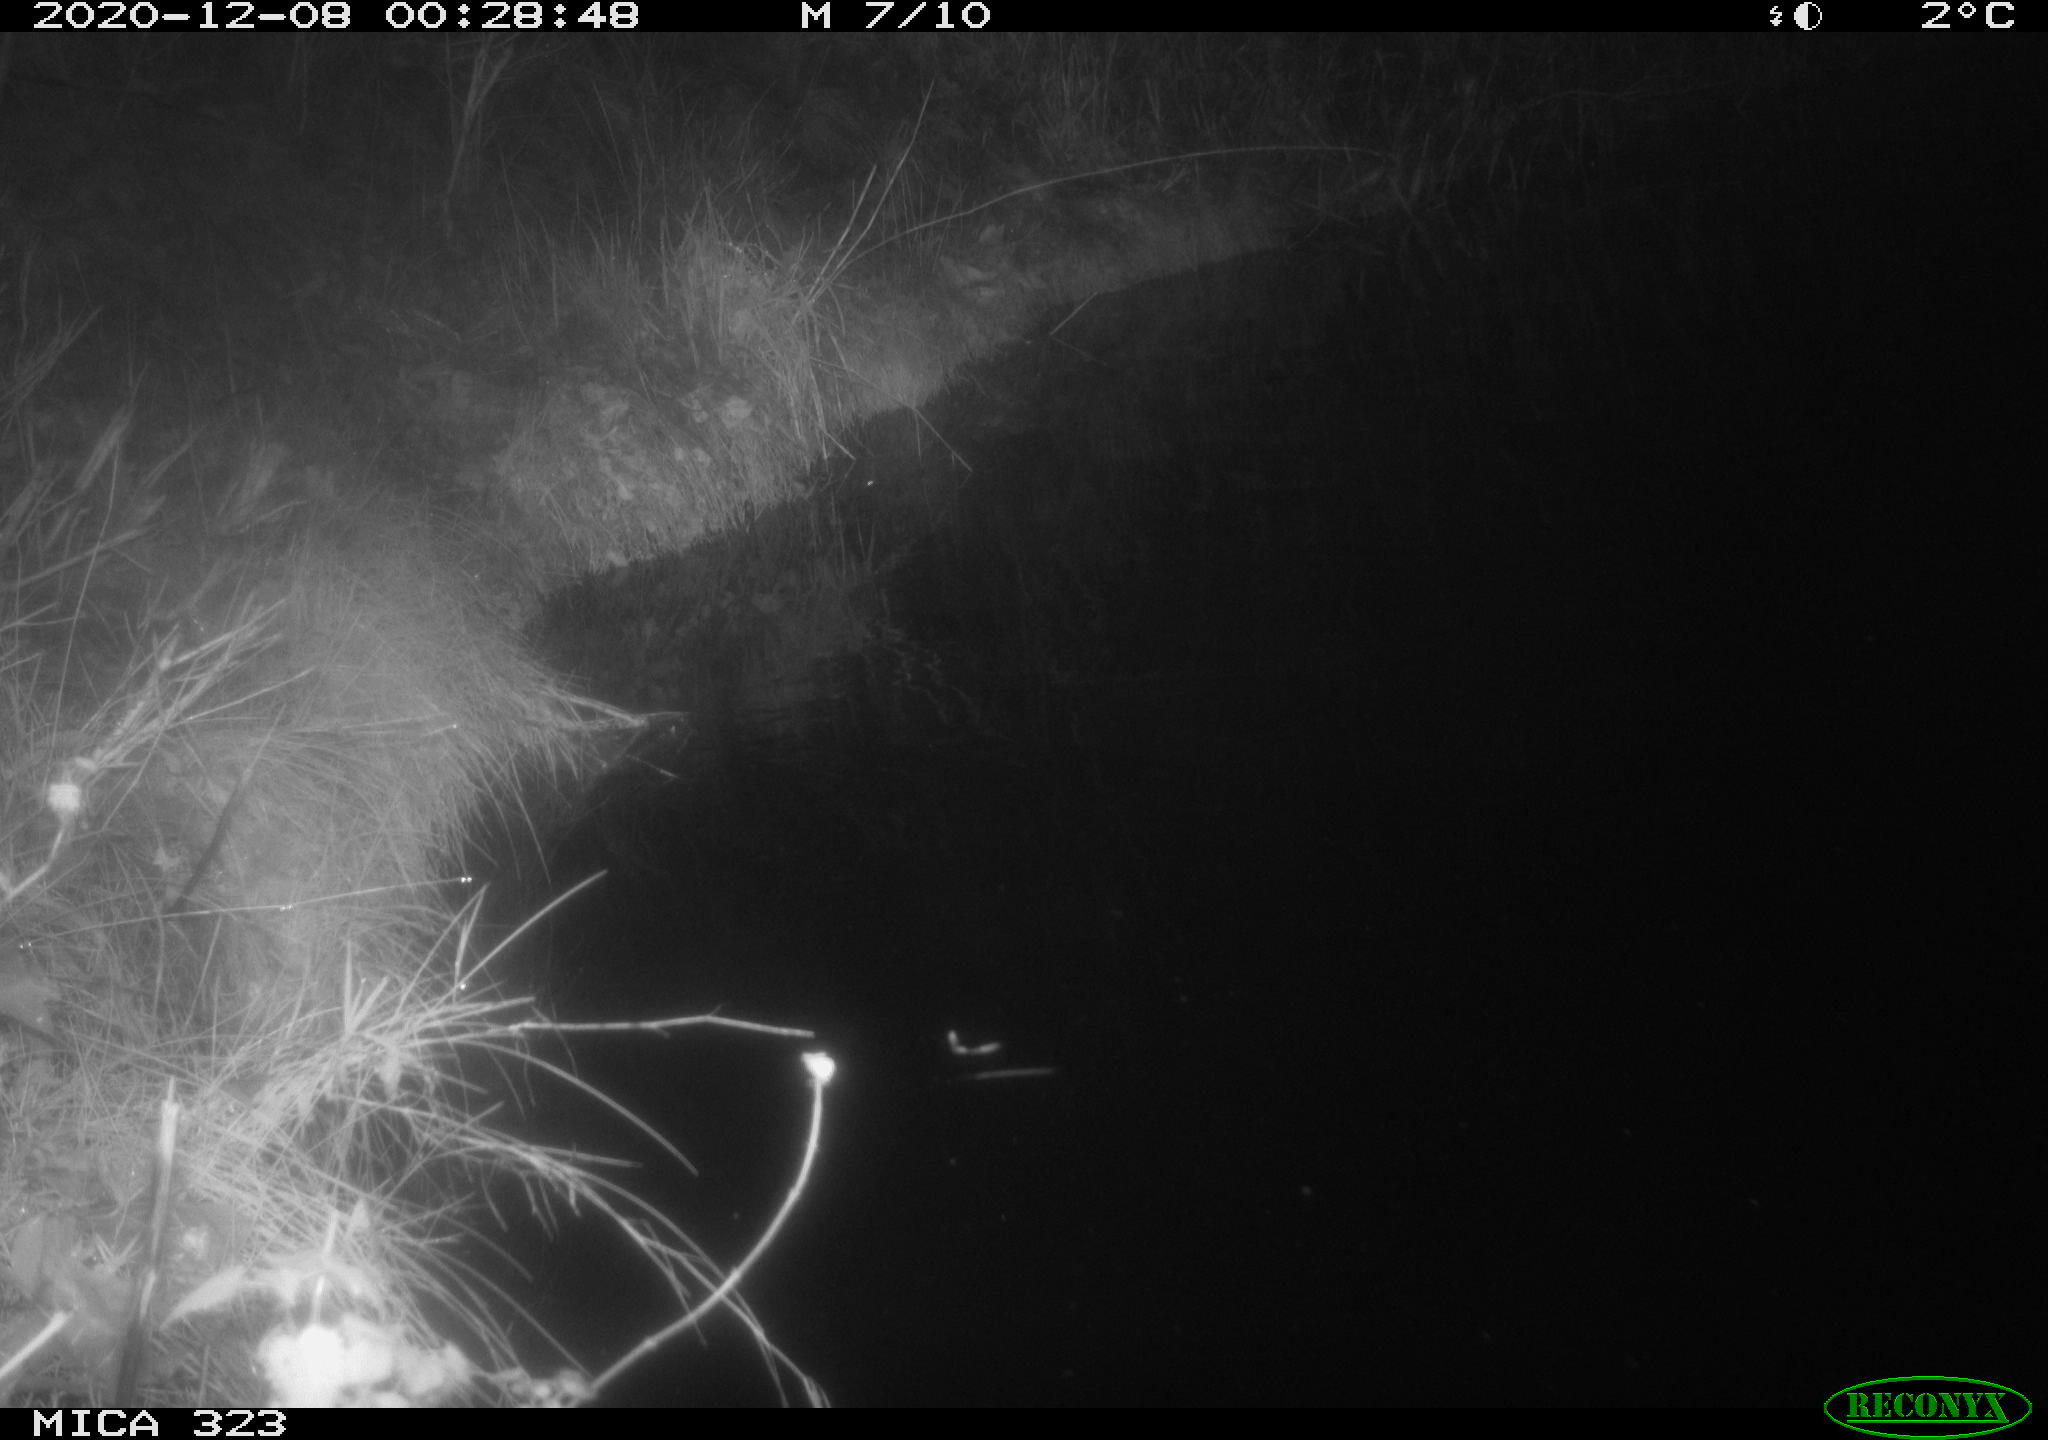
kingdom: Animalia
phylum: Chordata
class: Mammalia
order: Rodentia
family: Myocastoridae
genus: Myocastor
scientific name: Myocastor coypus
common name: Coypu
